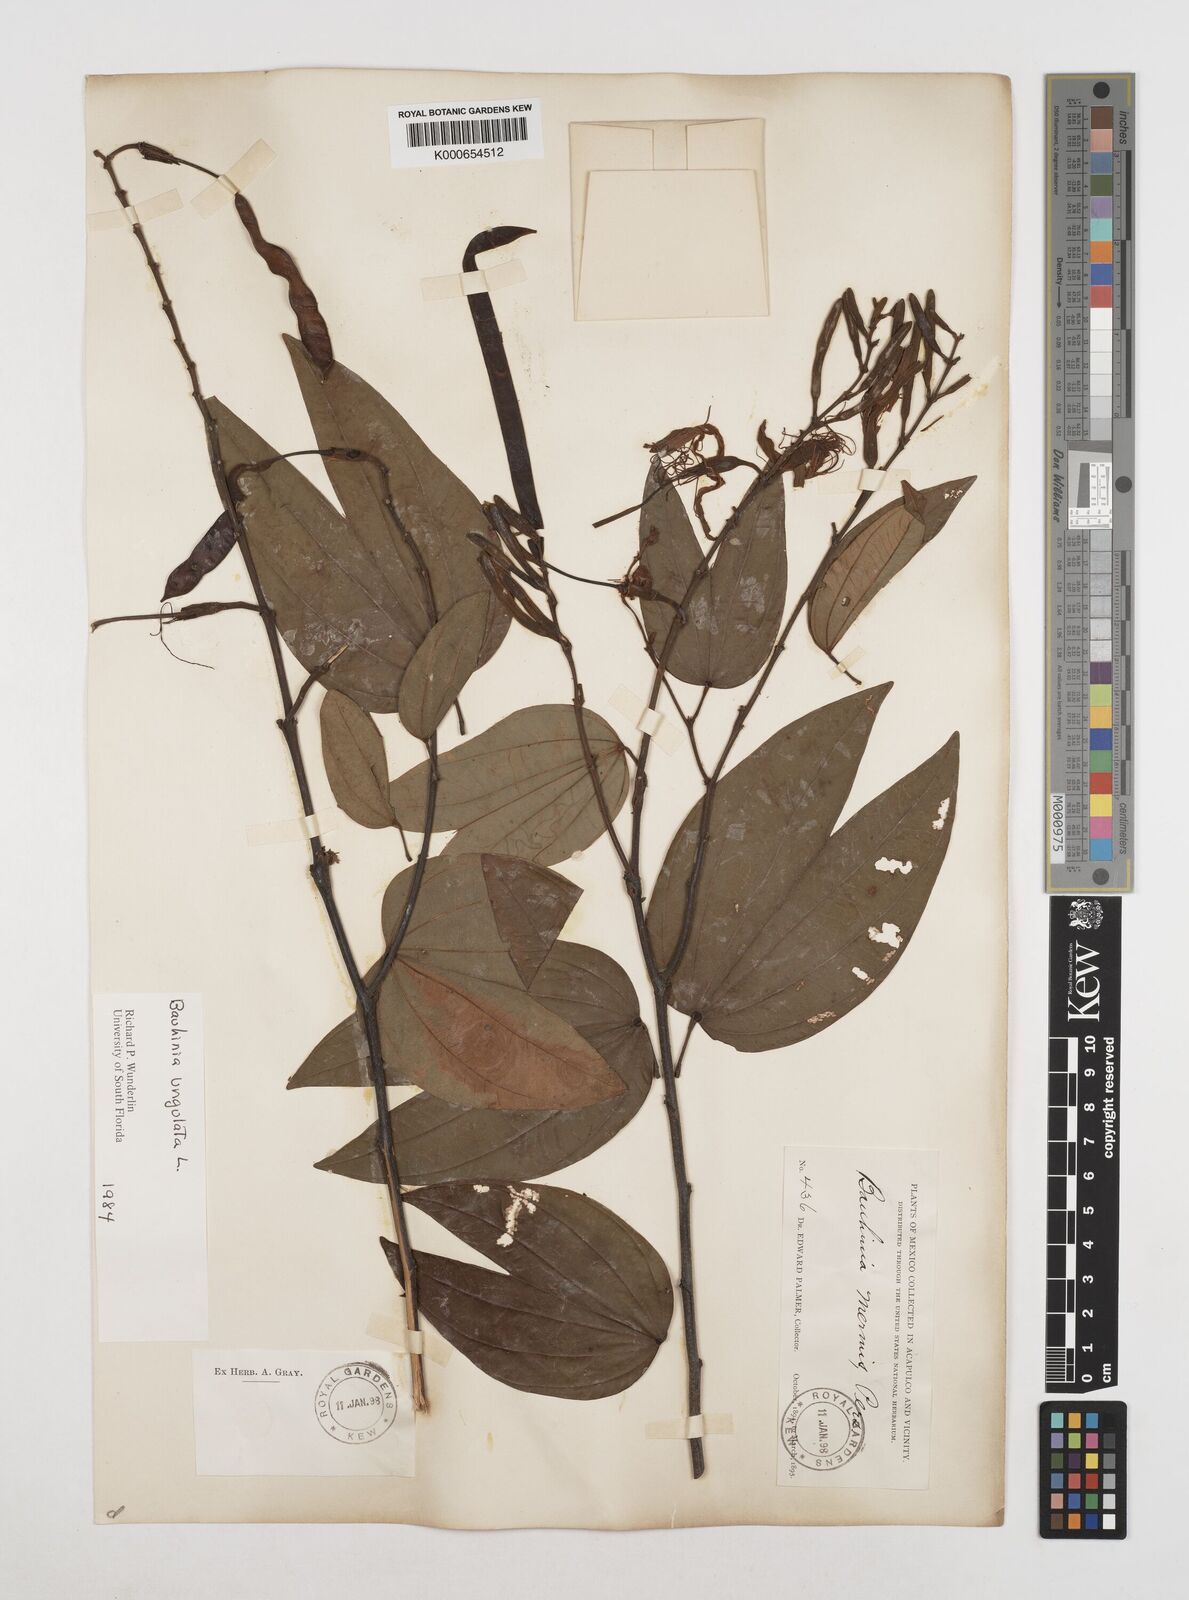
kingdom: Plantae
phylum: Tracheophyta
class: Magnoliopsida
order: Fabales
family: Fabaceae
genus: Bauhinia
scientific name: Bauhinia ungulata
